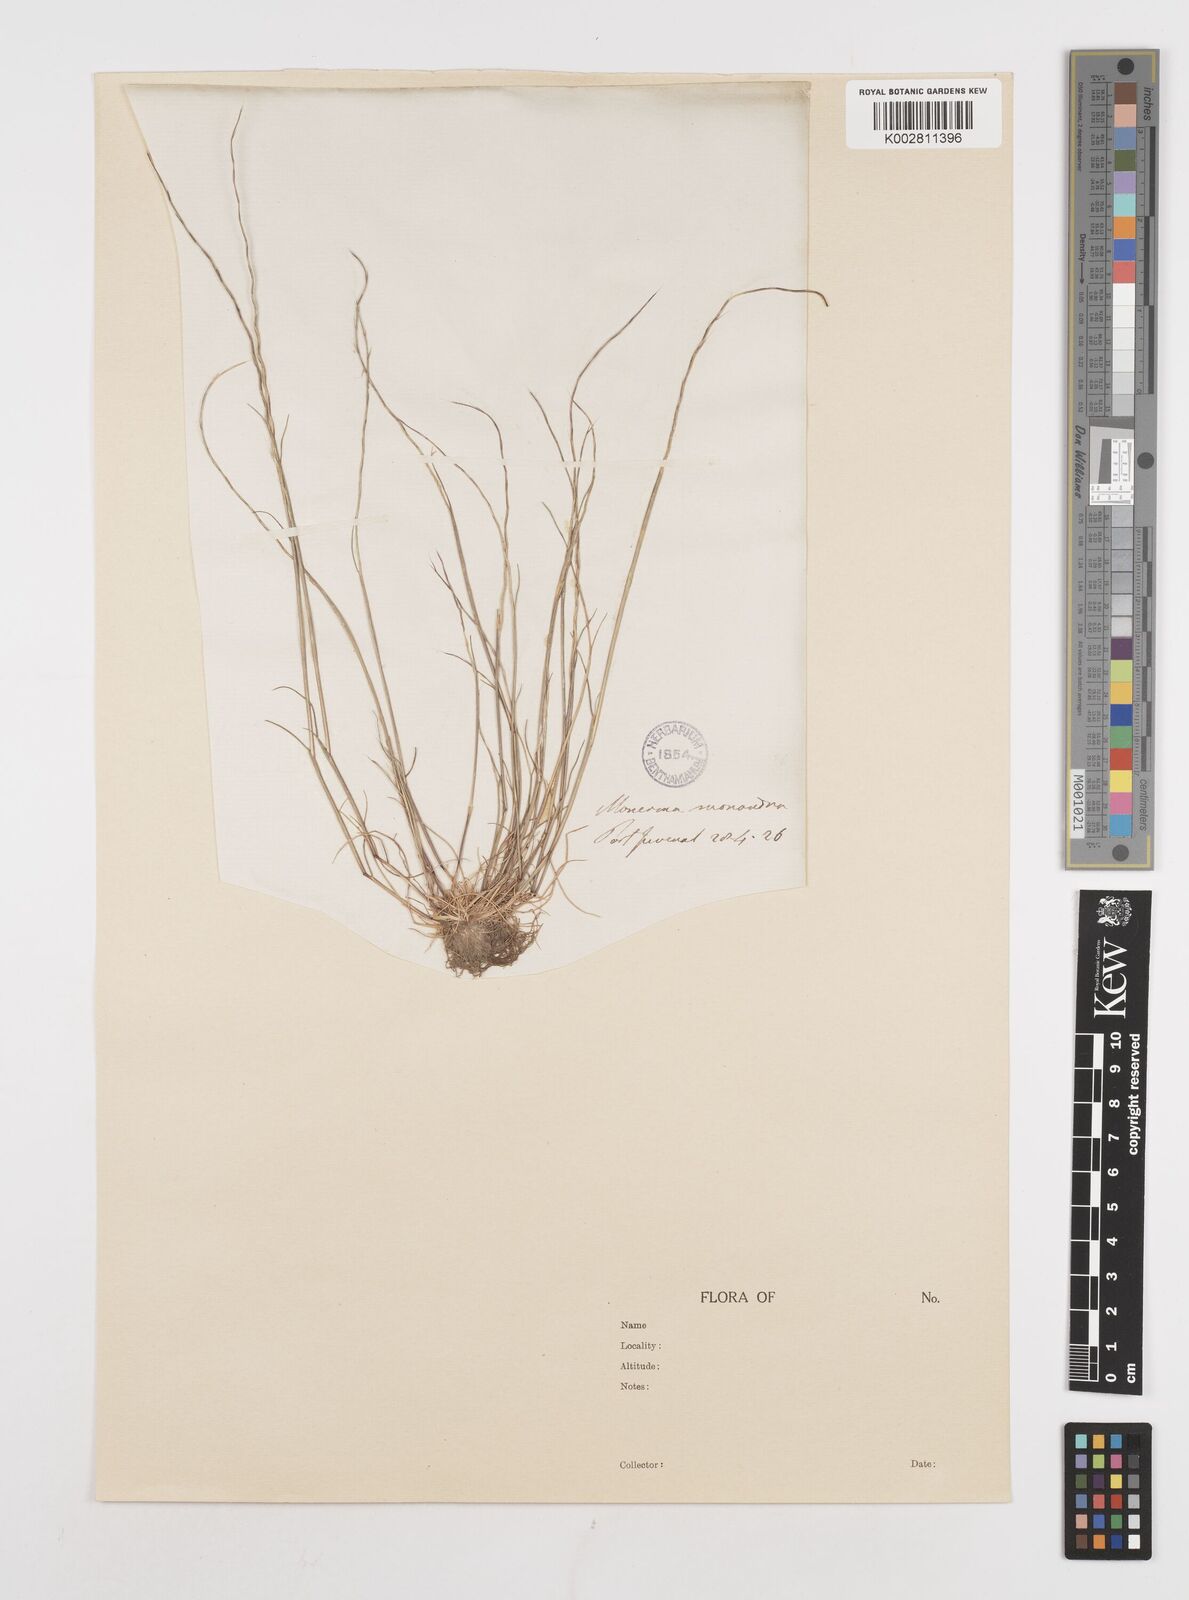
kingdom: Plantae
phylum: Tracheophyta
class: Liliopsida
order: Poales
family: Poaceae
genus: Festuca
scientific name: Festuca incurva
